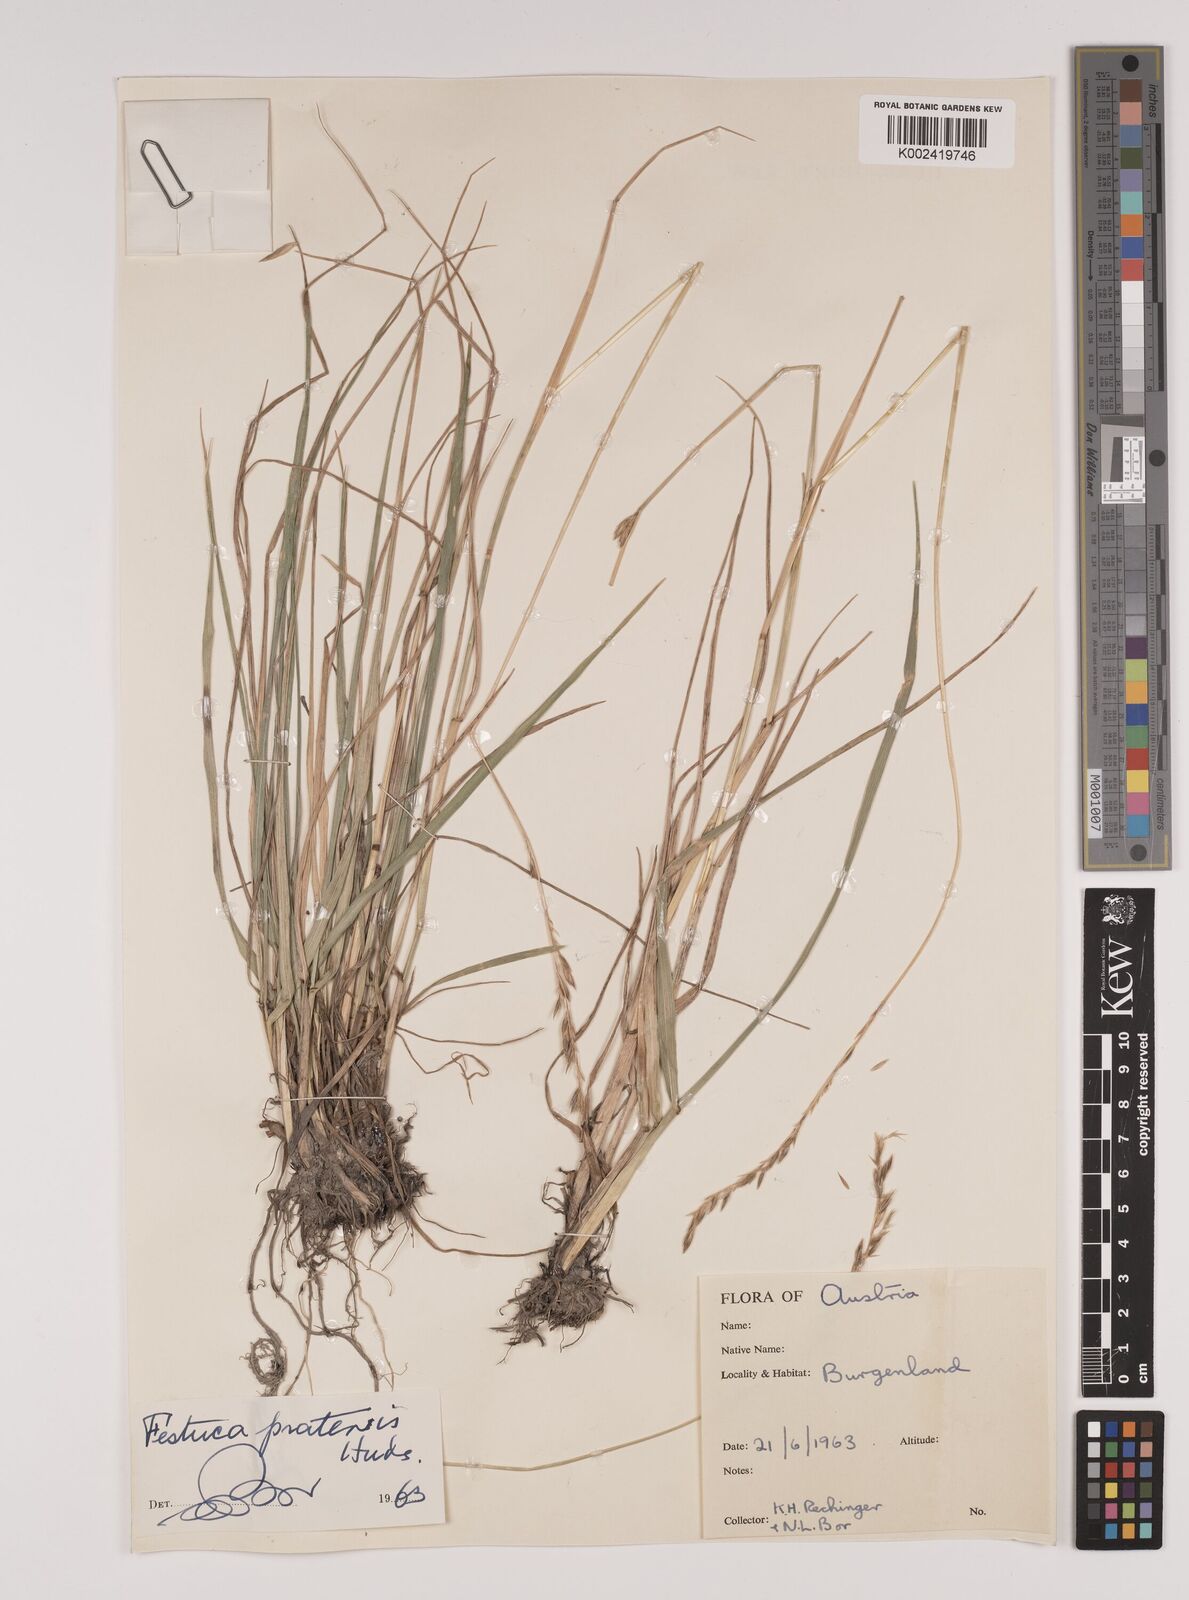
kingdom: Plantae
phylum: Tracheophyta
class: Liliopsida
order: Poales
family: Poaceae
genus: Lolium
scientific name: Lolium pratense
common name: Dover grass
